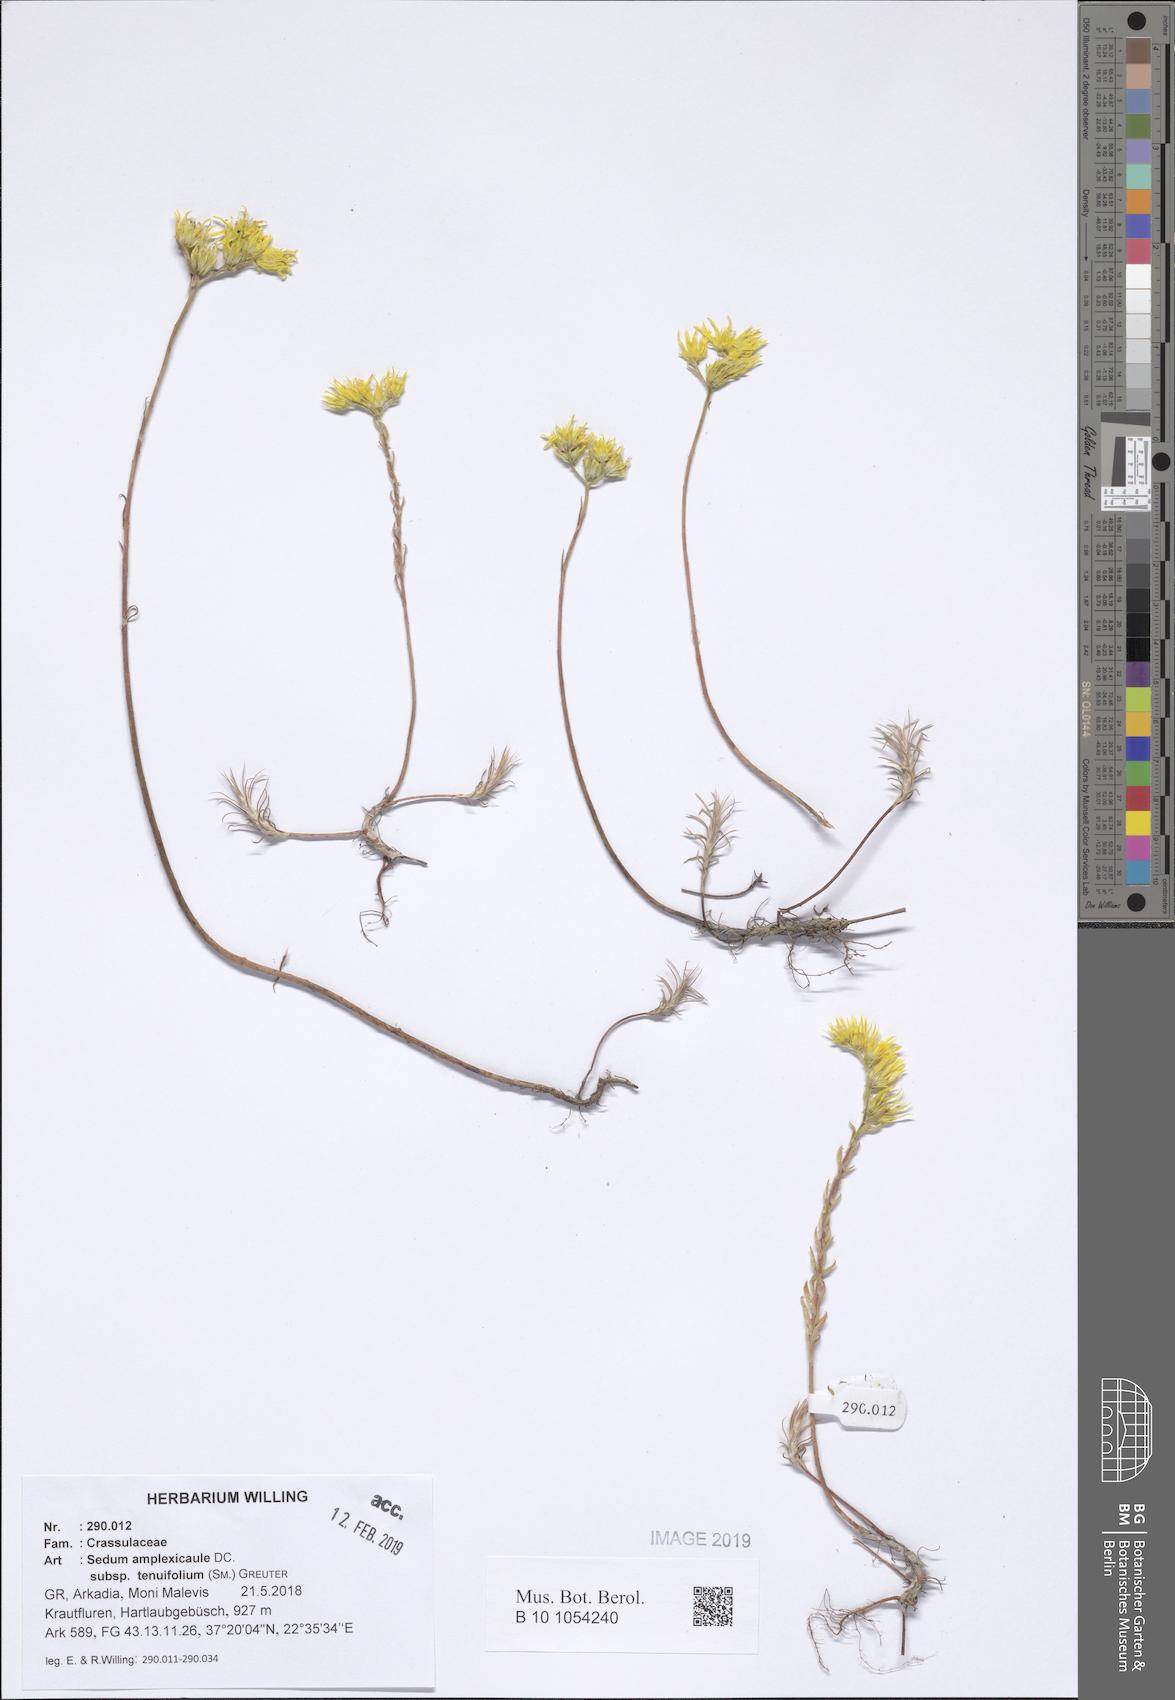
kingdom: Plantae
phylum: Tracheophyta
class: Magnoliopsida
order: Saxifragales
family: Crassulaceae
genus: Petrosedum
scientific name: Petrosedum tenuifolium
